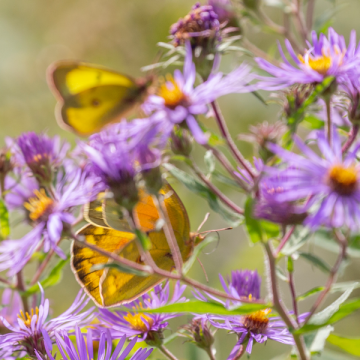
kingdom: Animalia
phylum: Arthropoda
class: Insecta
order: Lepidoptera
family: Pieridae
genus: Colias
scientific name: Colias eurytheme
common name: Orange Sulphur
